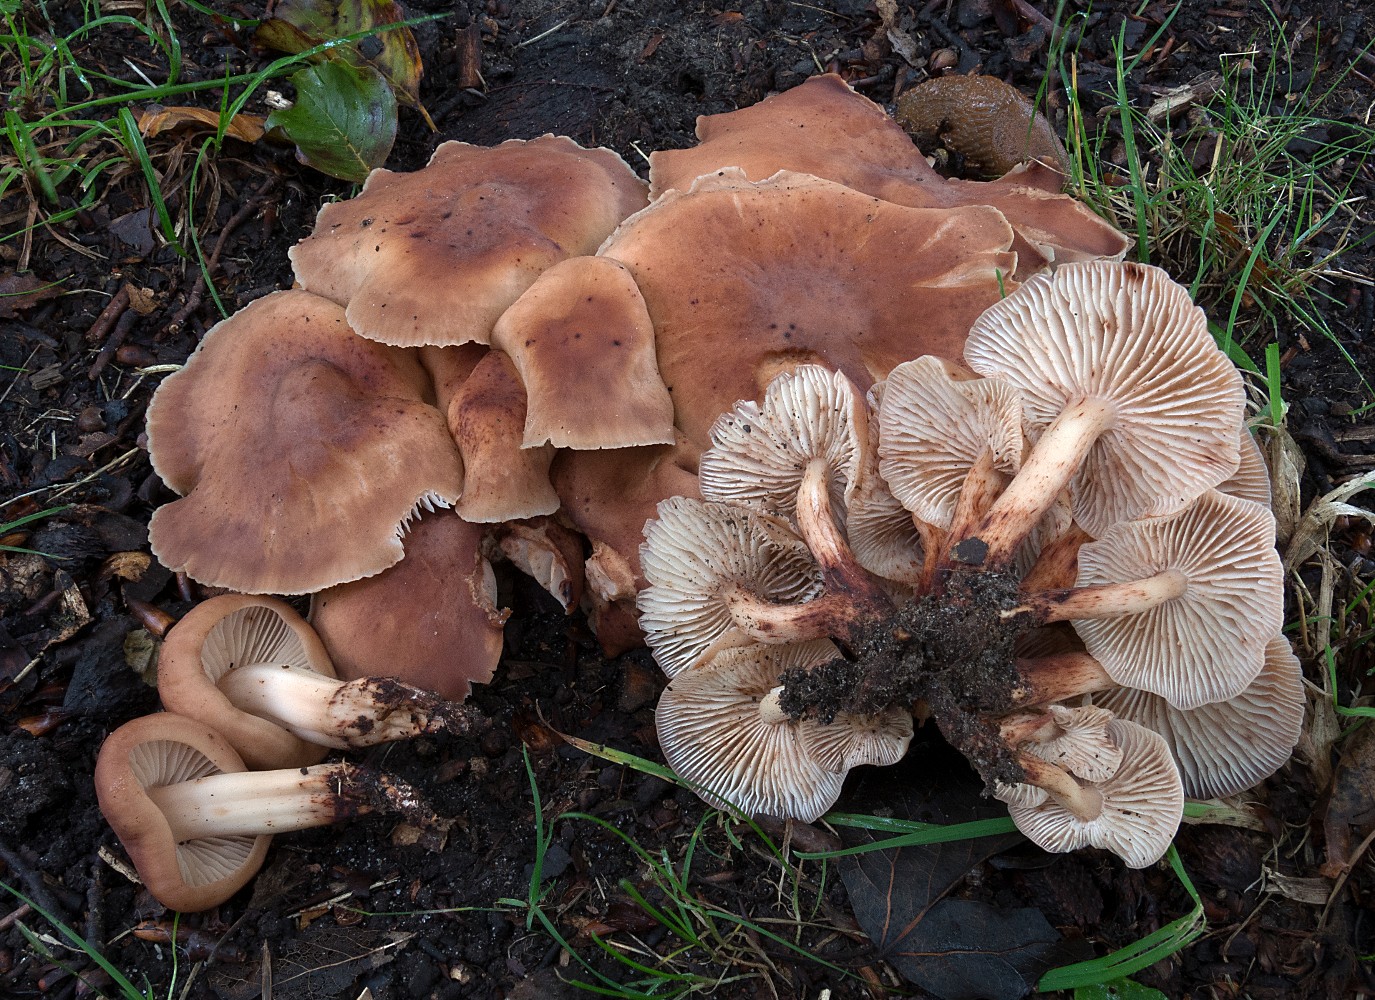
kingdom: Fungi
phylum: Basidiomycota
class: Agaricomycetes
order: Agaricales
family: Omphalotaceae
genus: Gymnopus
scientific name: Gymnopus fusipes
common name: tenstokket fladhat
